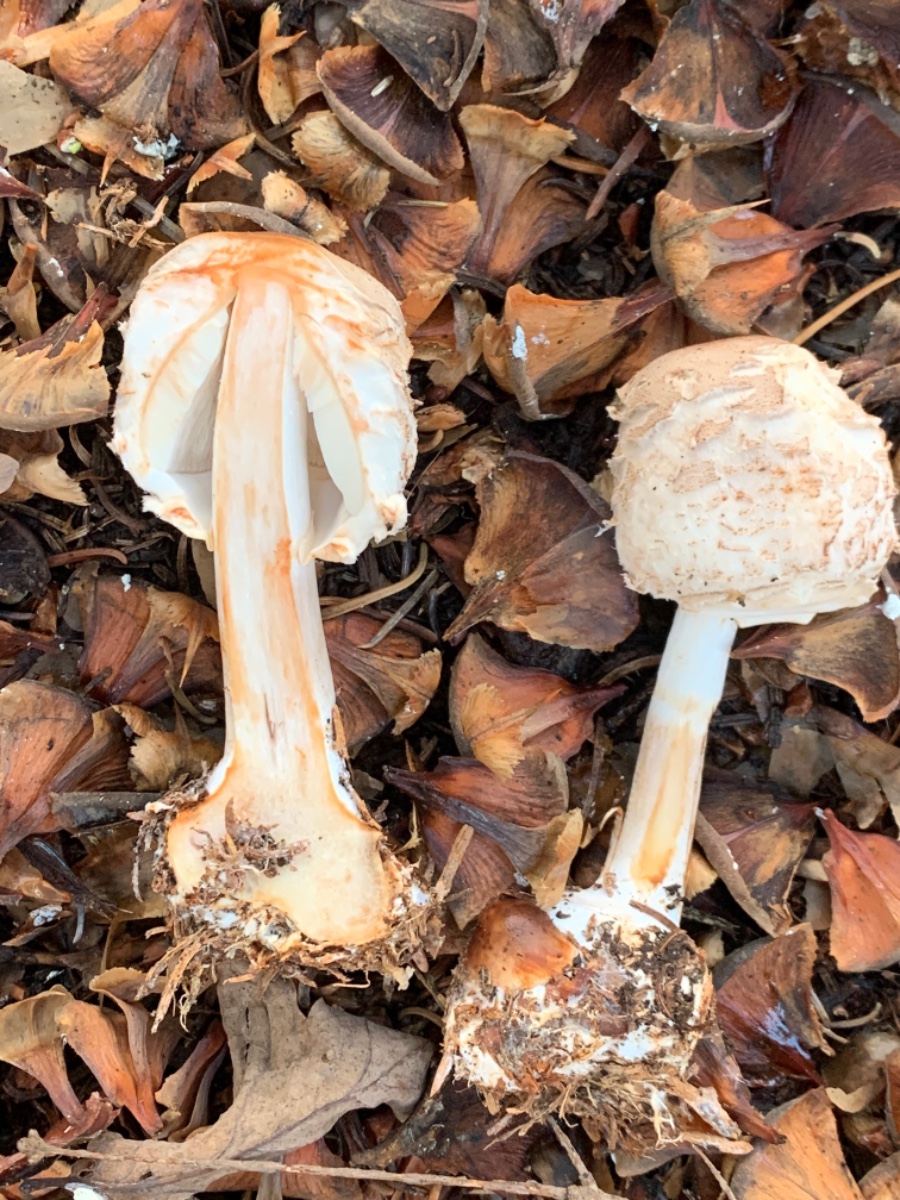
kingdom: Fungi
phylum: Basidiomycota
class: Agaricomycetes
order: Agaricales
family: Agaricaceae
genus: Chlorophyllum
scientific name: Chlorophyllum olivieri
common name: almindelig rabarberhat
